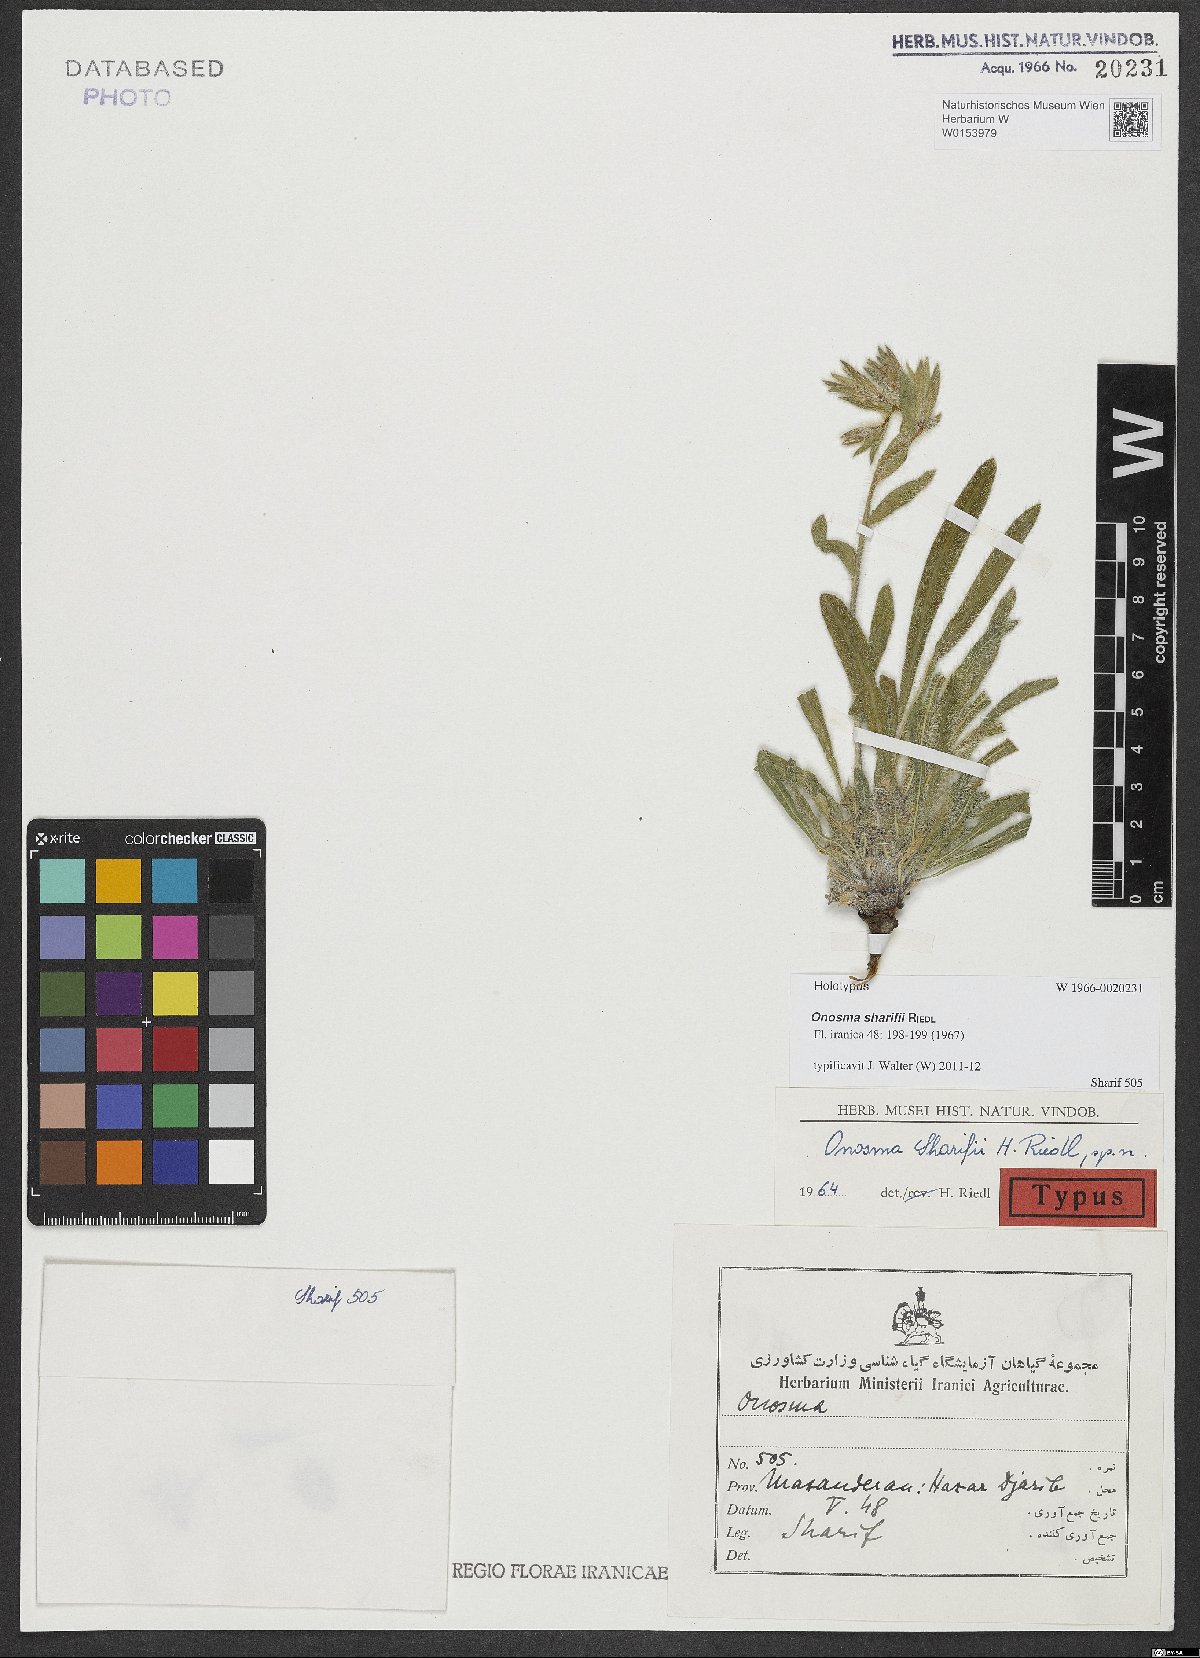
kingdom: Plantae
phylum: Tracheophyta
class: Magnoliopsida
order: Boraginales
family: Boraginaceae
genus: Onosma
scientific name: Onosma sharifii
